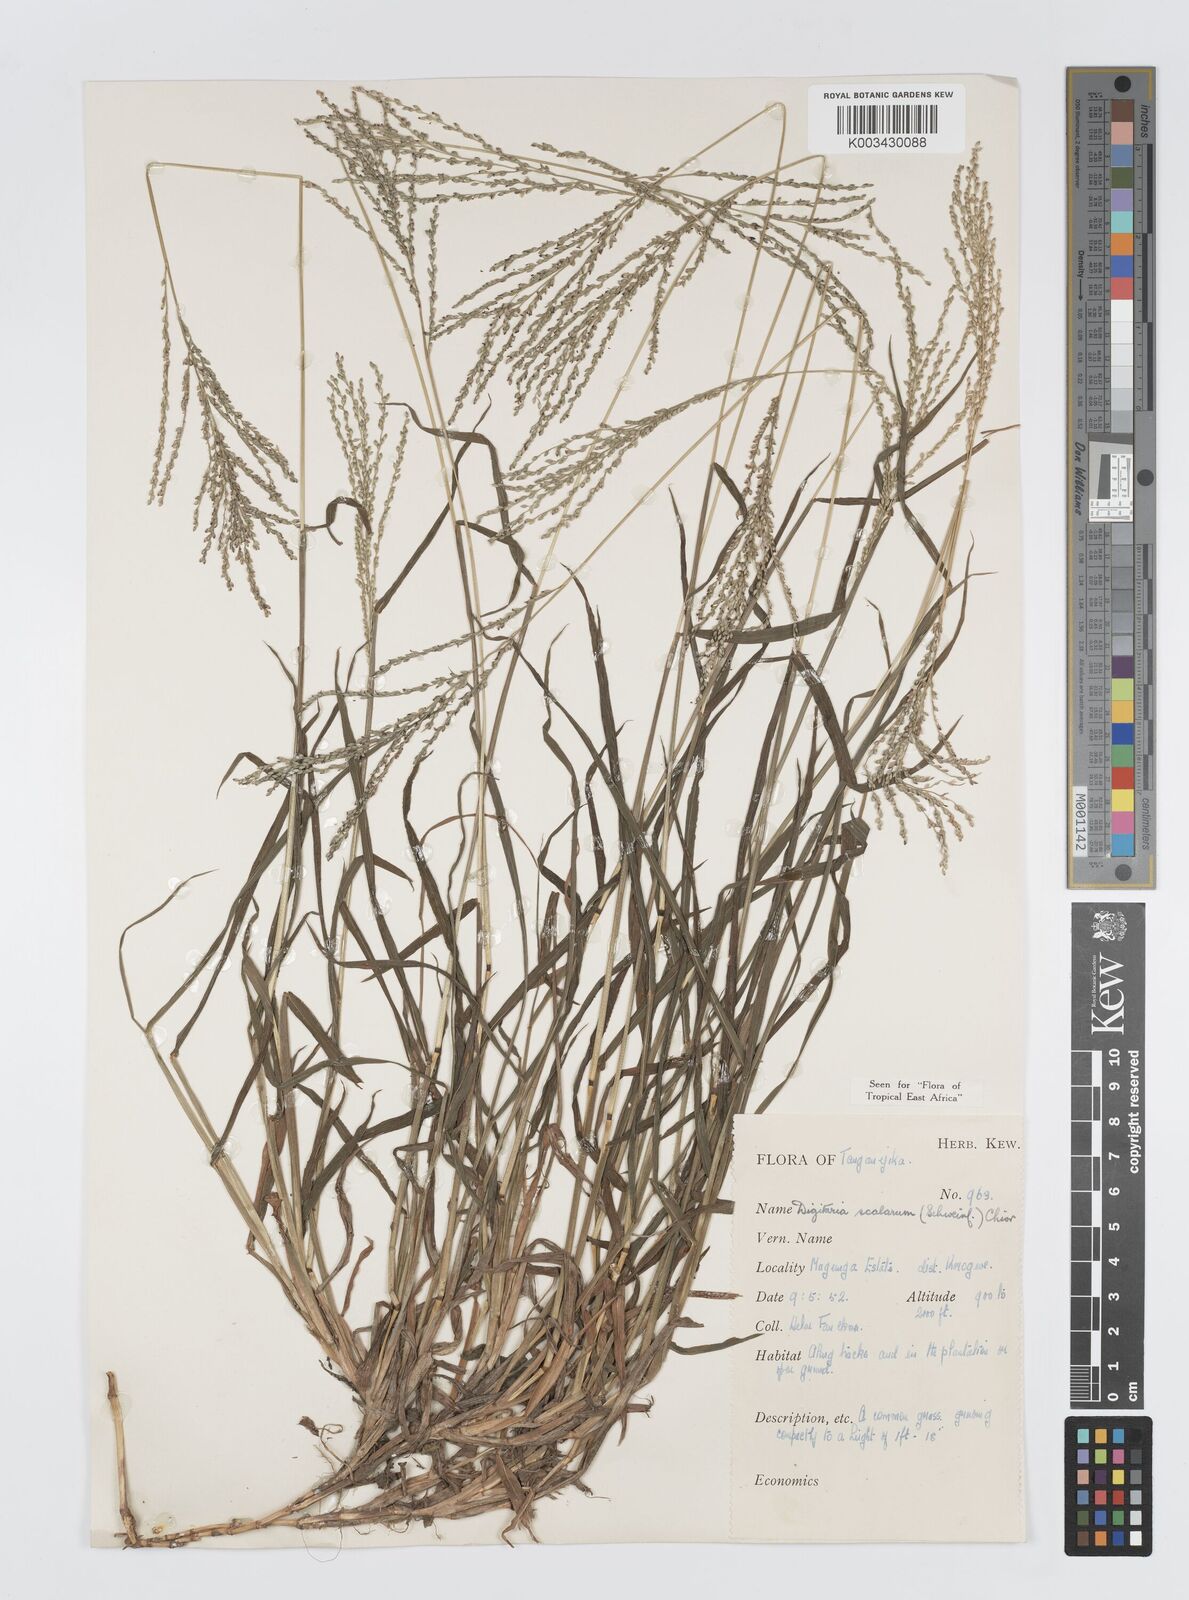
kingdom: Plantae
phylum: Tracheophyta
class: Liliopsida
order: Poales
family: Poaceae
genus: Digitaria
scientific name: Digitaria abyssinica
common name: African couchgrass
